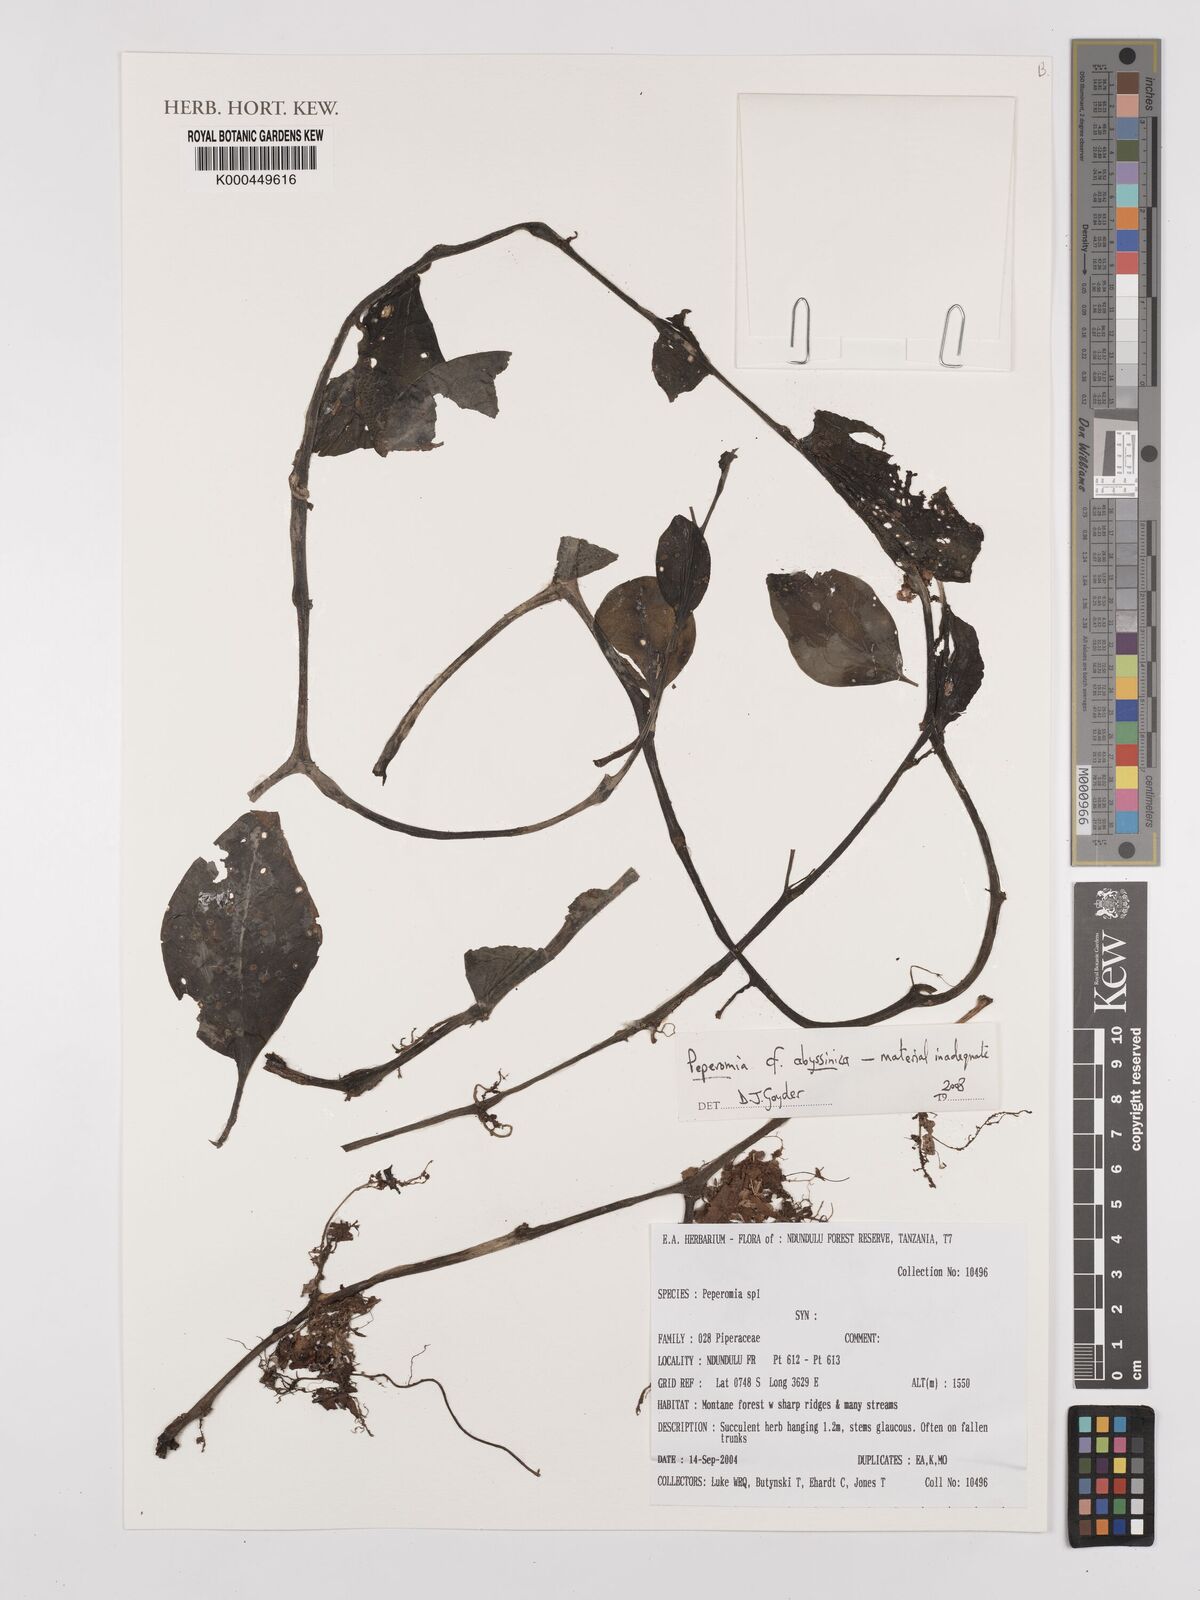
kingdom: Plantae
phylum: Tracheophyta
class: Magnoliopsida
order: Piperales
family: Piperaceae
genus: Peperomia
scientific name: Peperomia abyssinica
